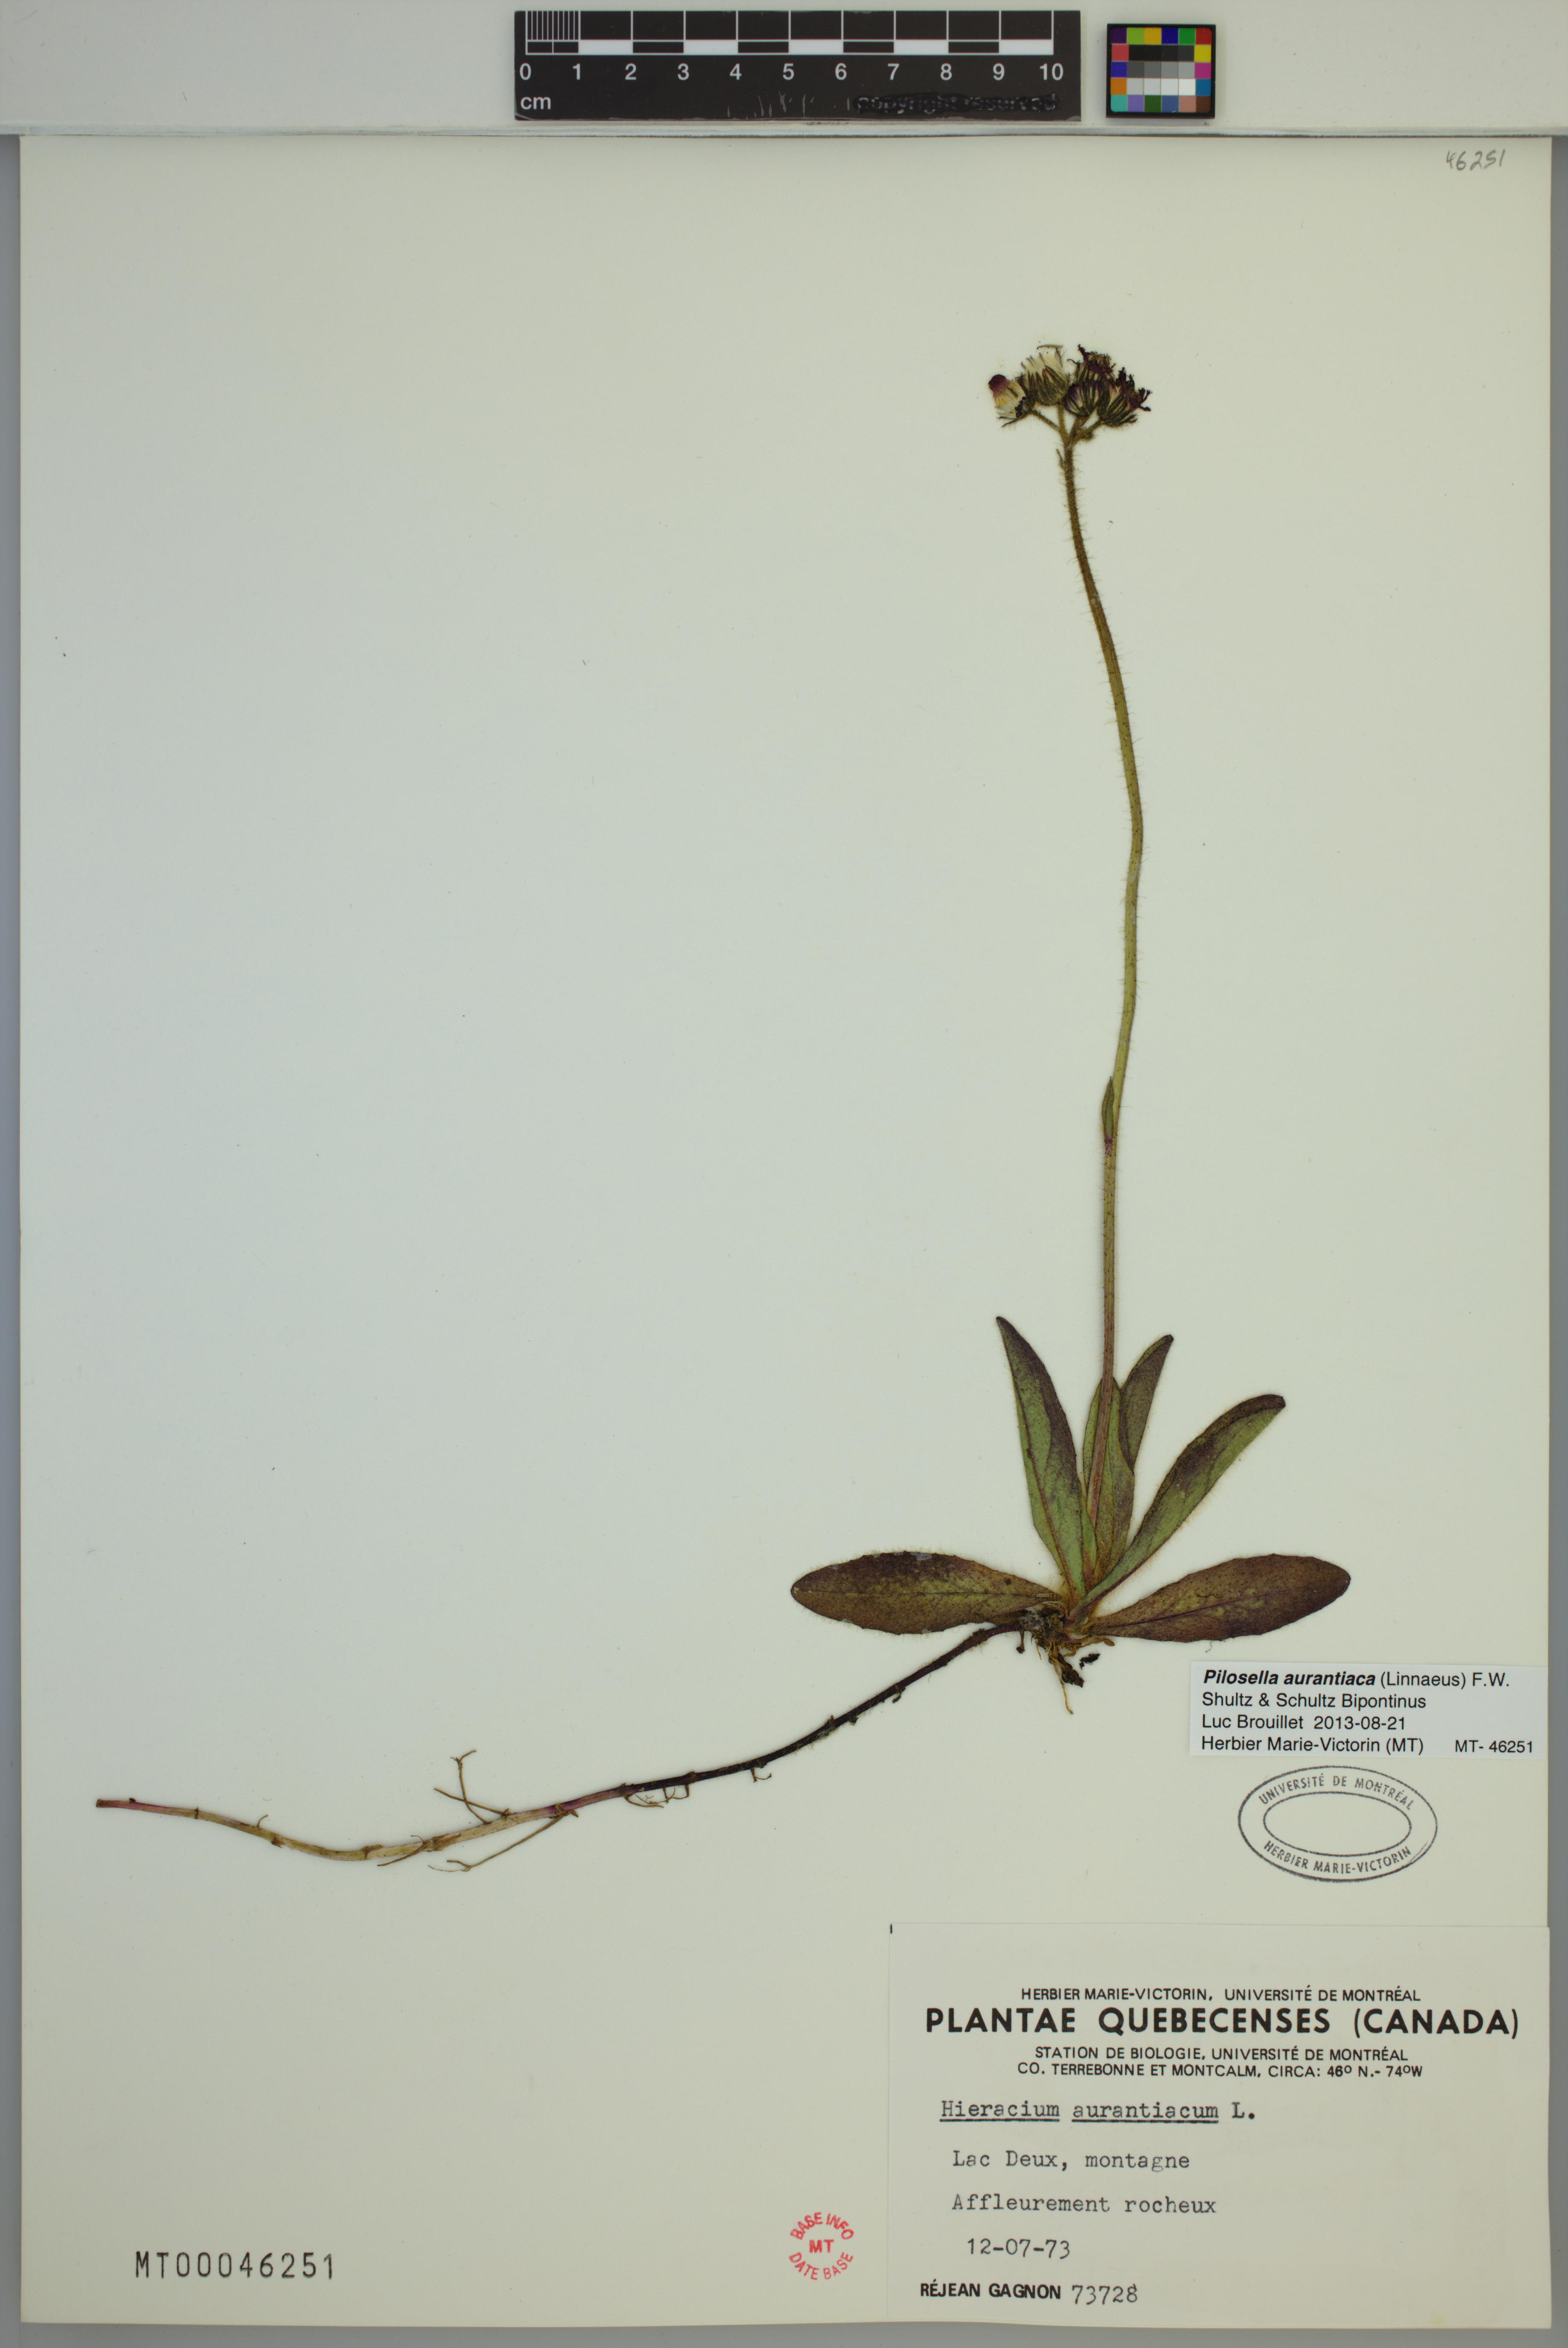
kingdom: Plantae
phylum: Tracheophyta
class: Magnoliopsida
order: Asterales
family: Asteraceae
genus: Pilosella
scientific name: Pilosella aurantiaca
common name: Fox-and-cubs
